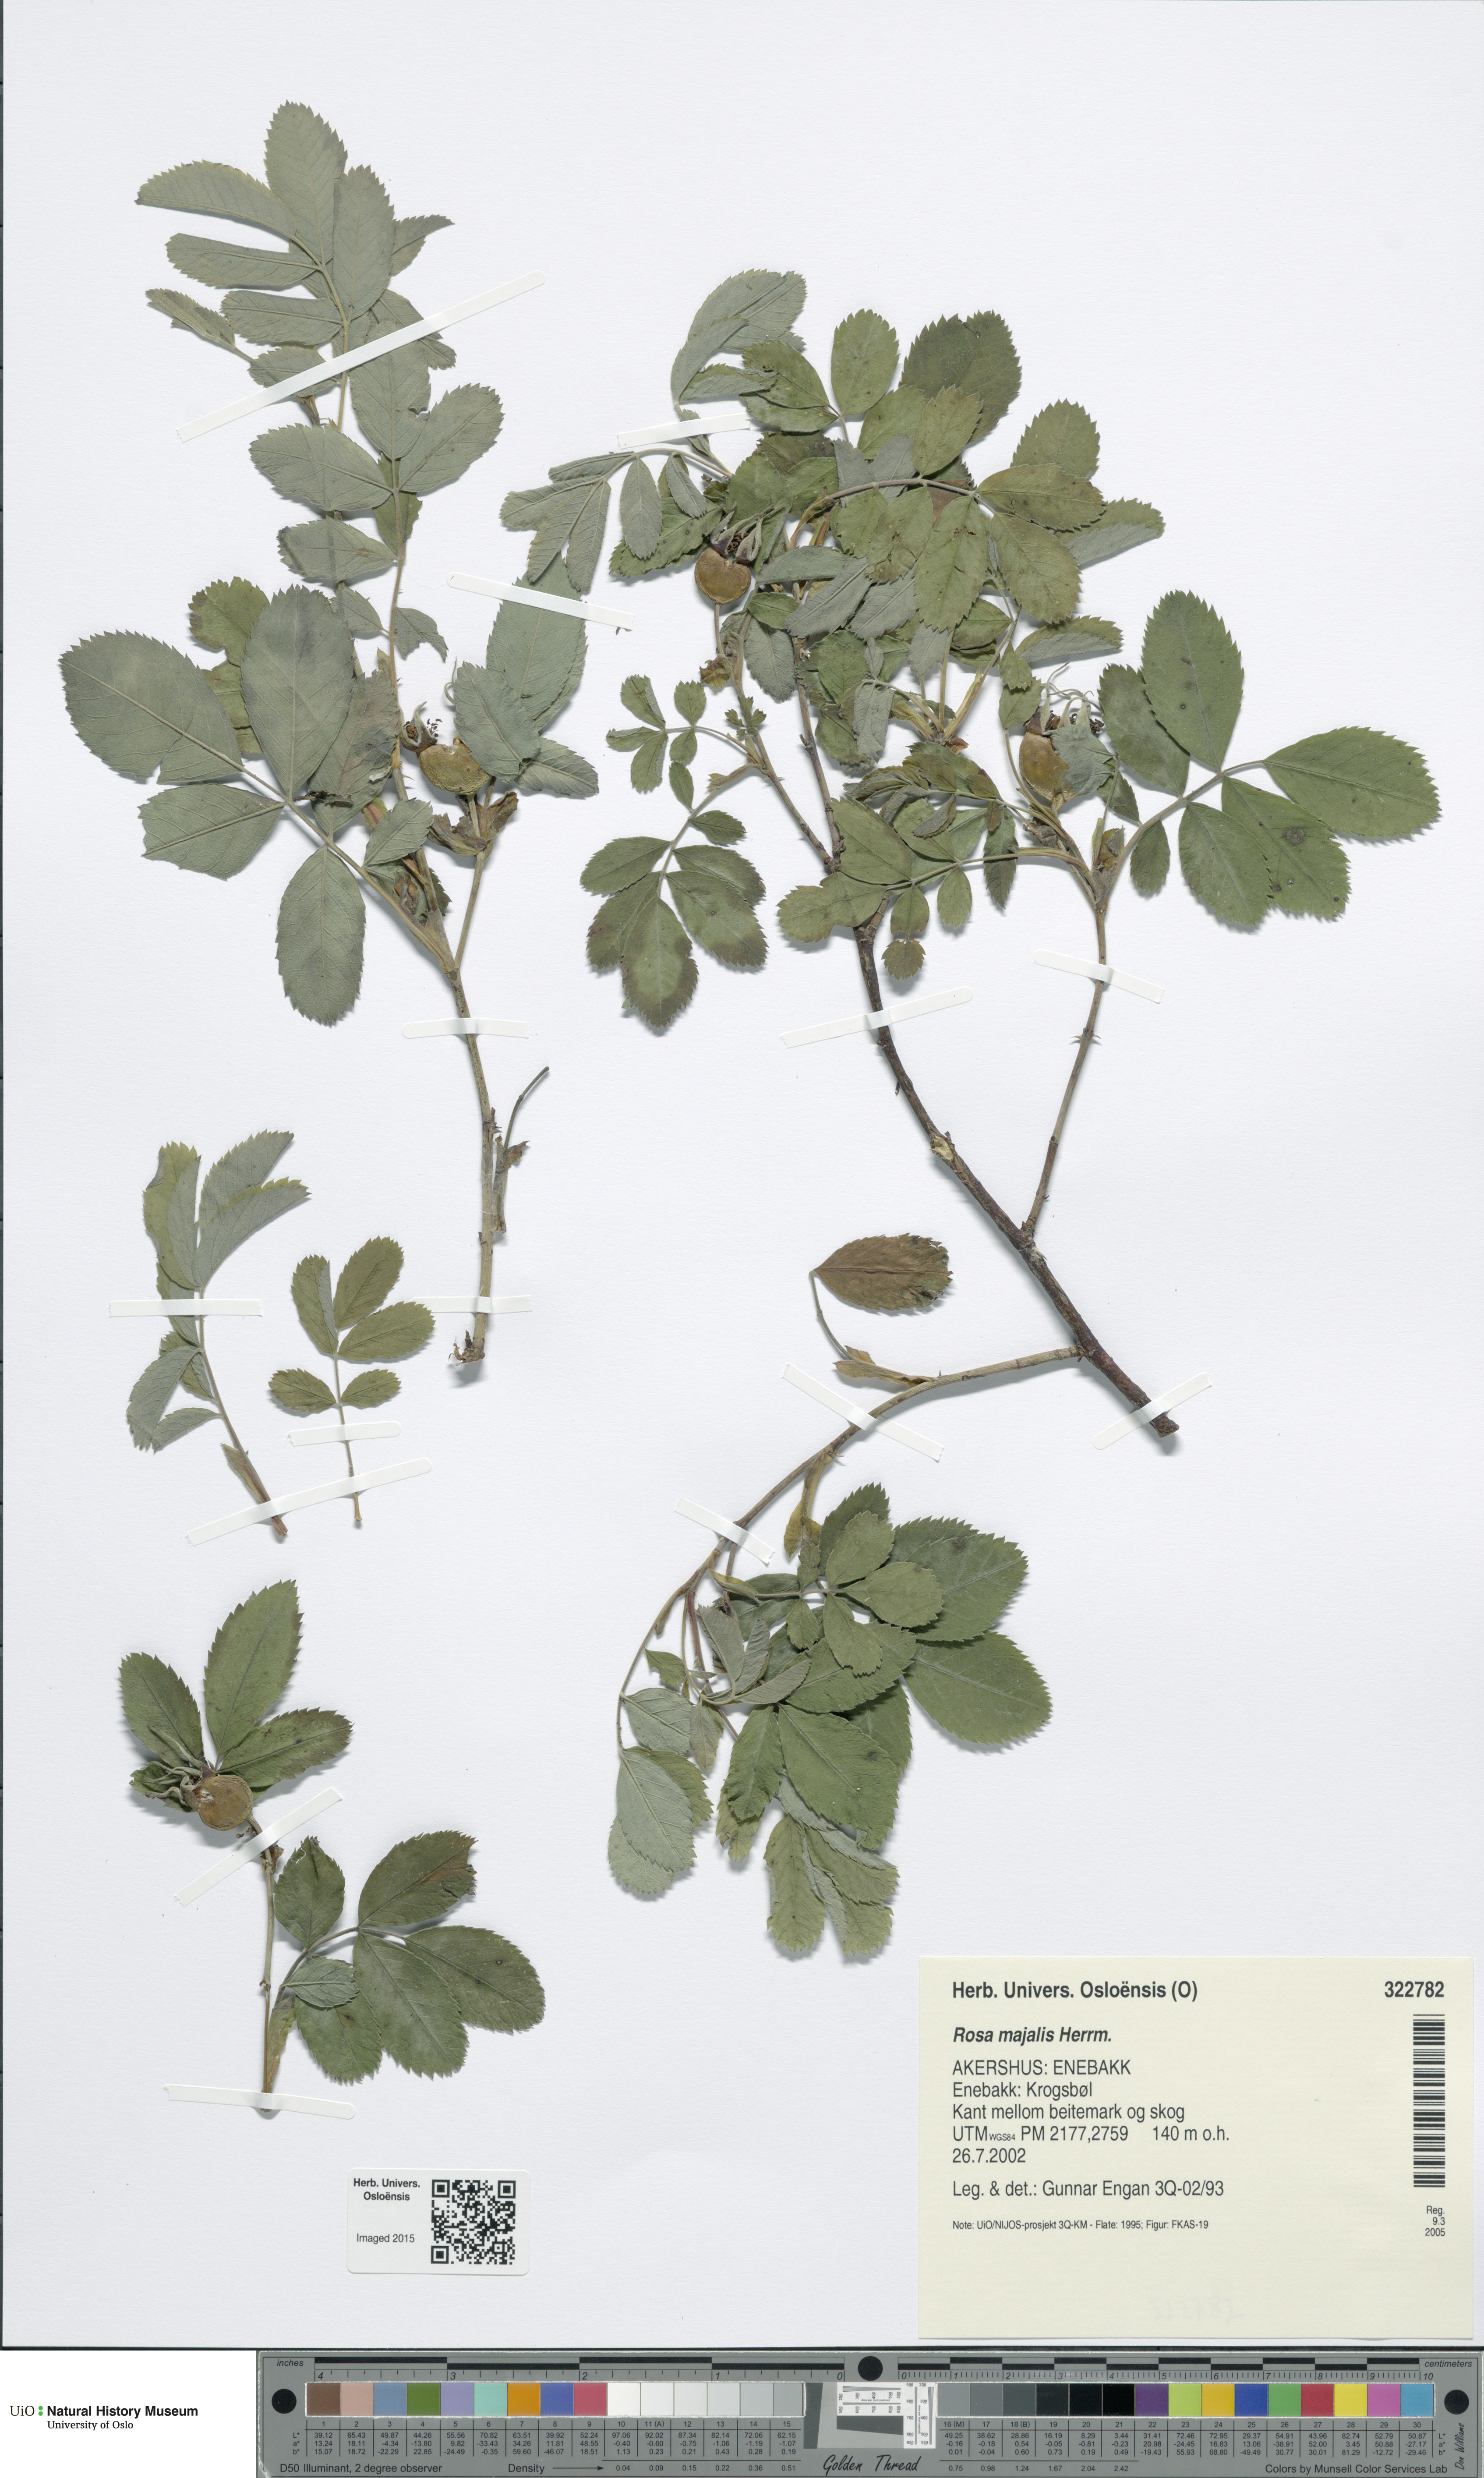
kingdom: Plantae
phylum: Tracheophyta
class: Magnoliopsida
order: Rosales
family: Rosaceae
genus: Rosa
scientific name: Rosa majalis
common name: Cinnamon rose
